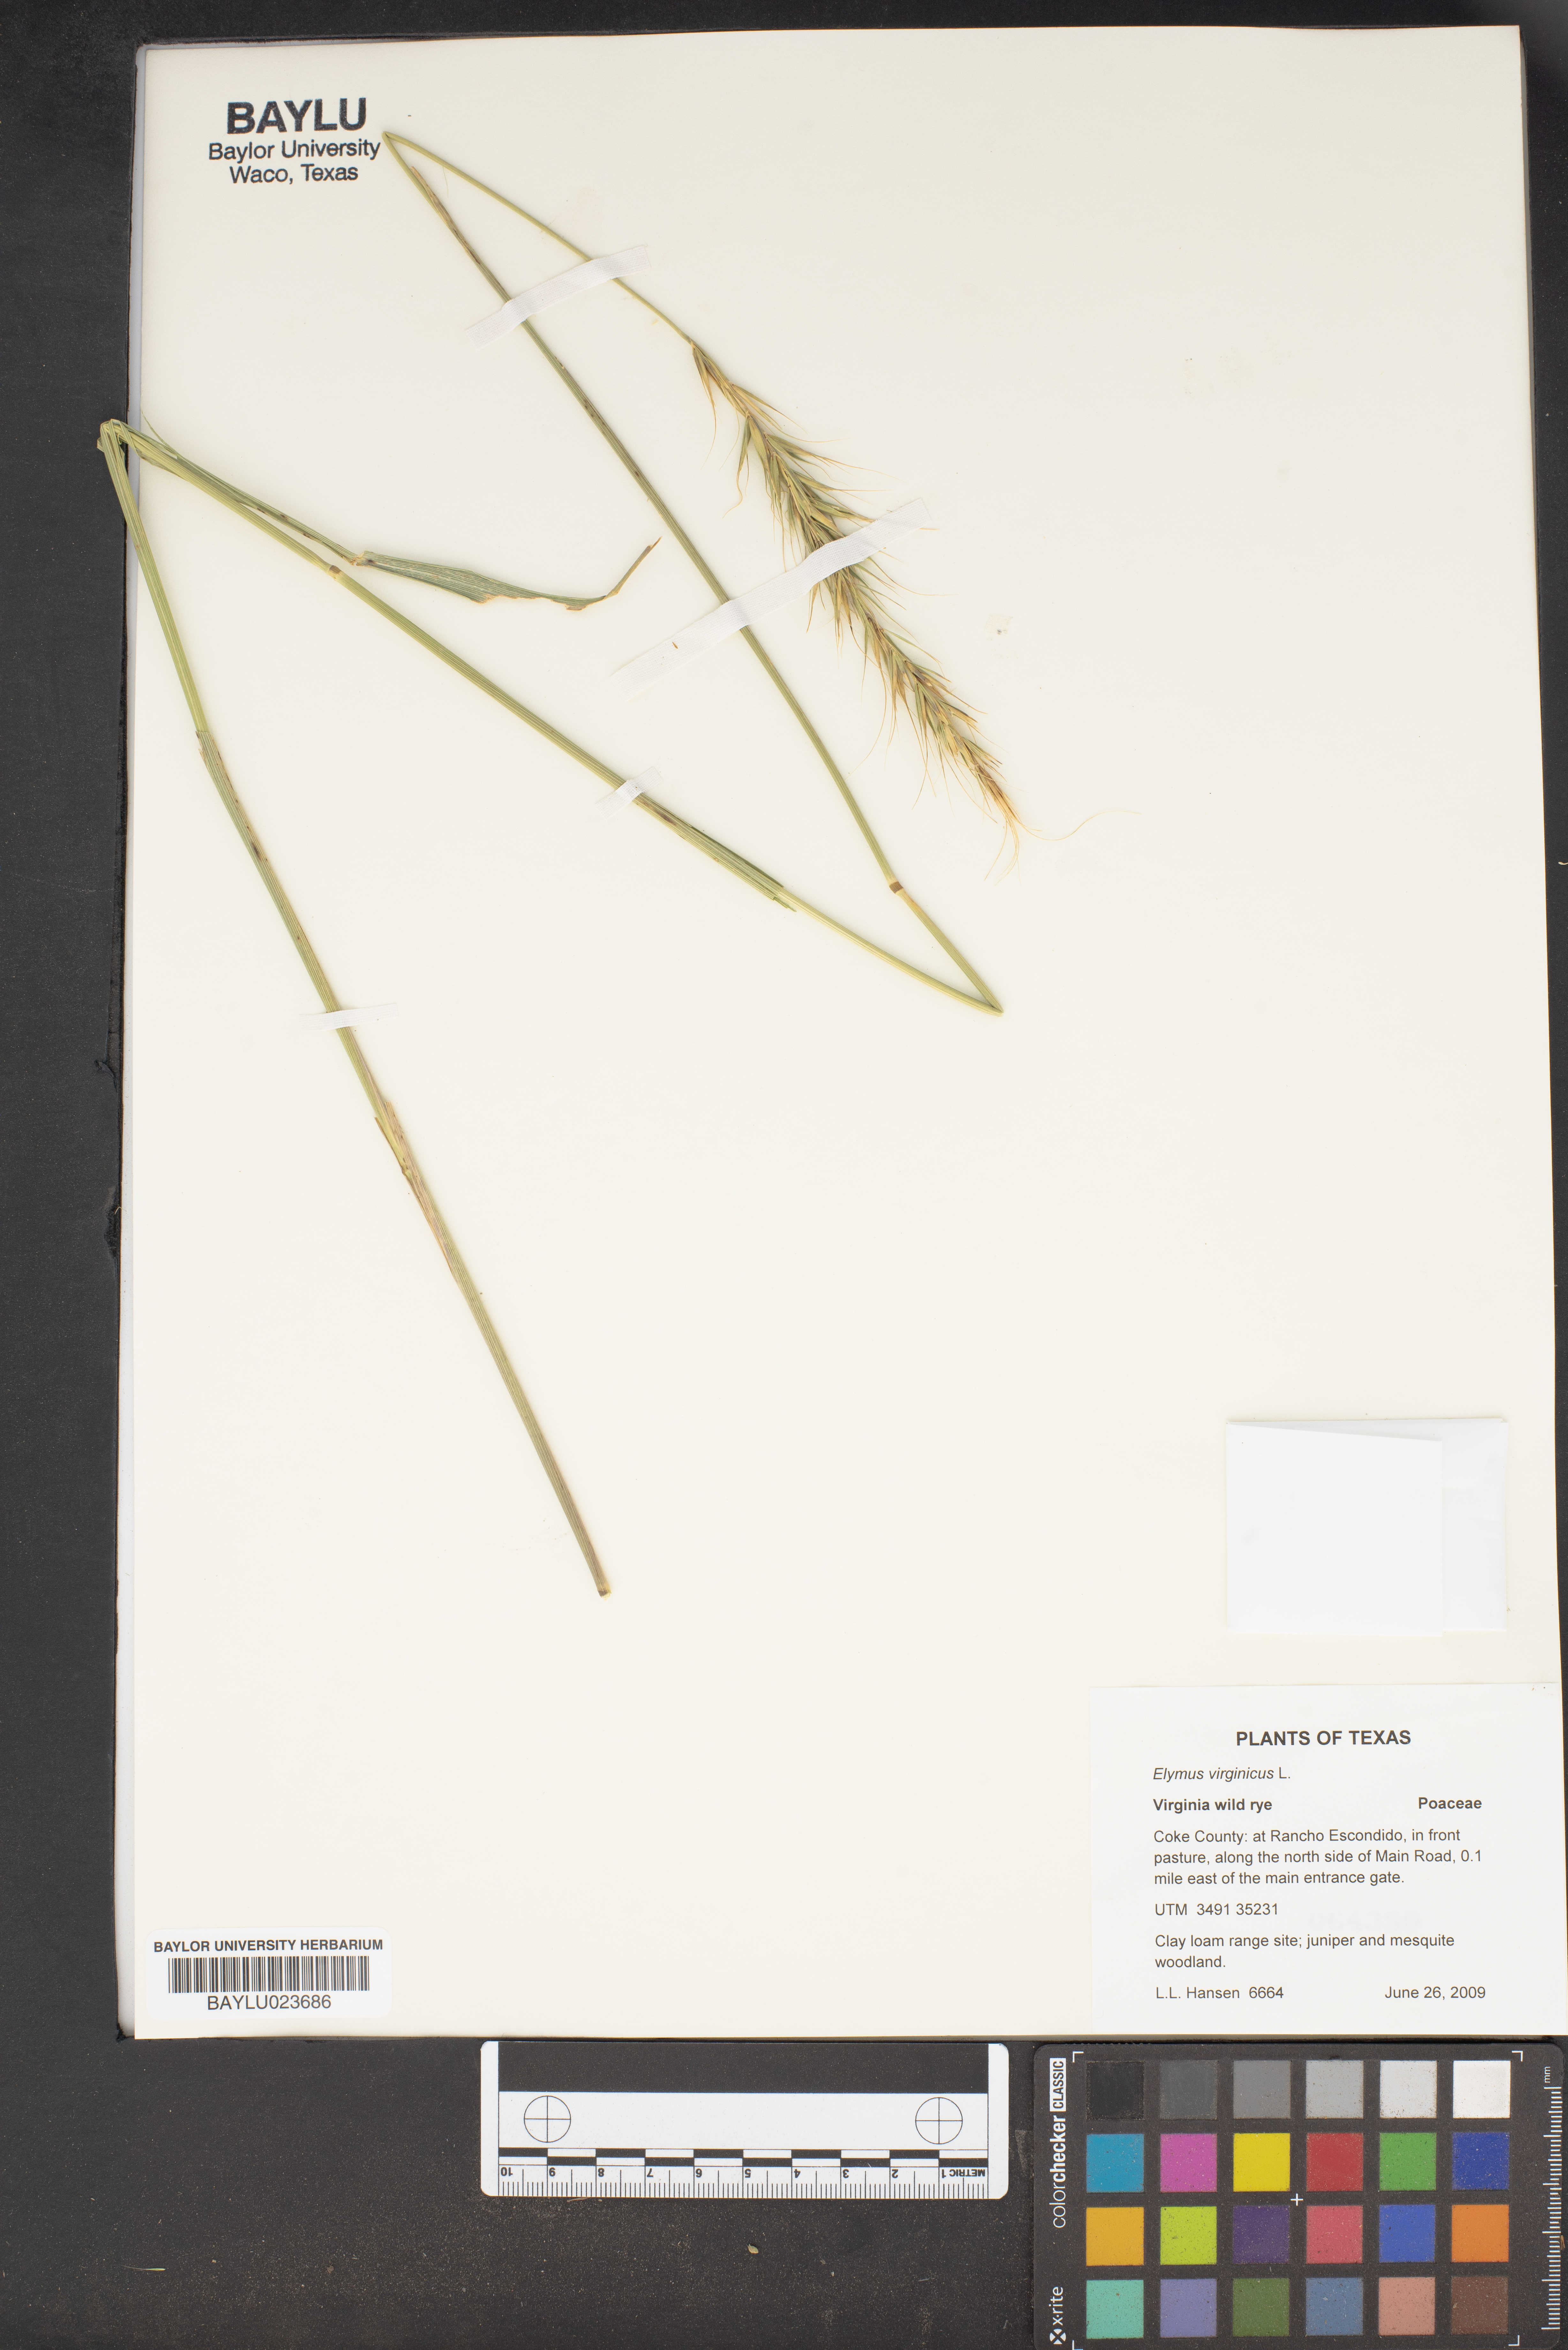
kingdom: Plantae
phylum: Tracheophyta
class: Liliopsida
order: Poales
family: Poaceae
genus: Elymus
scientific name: Elymus virginicus
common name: Common eastern wildrye
